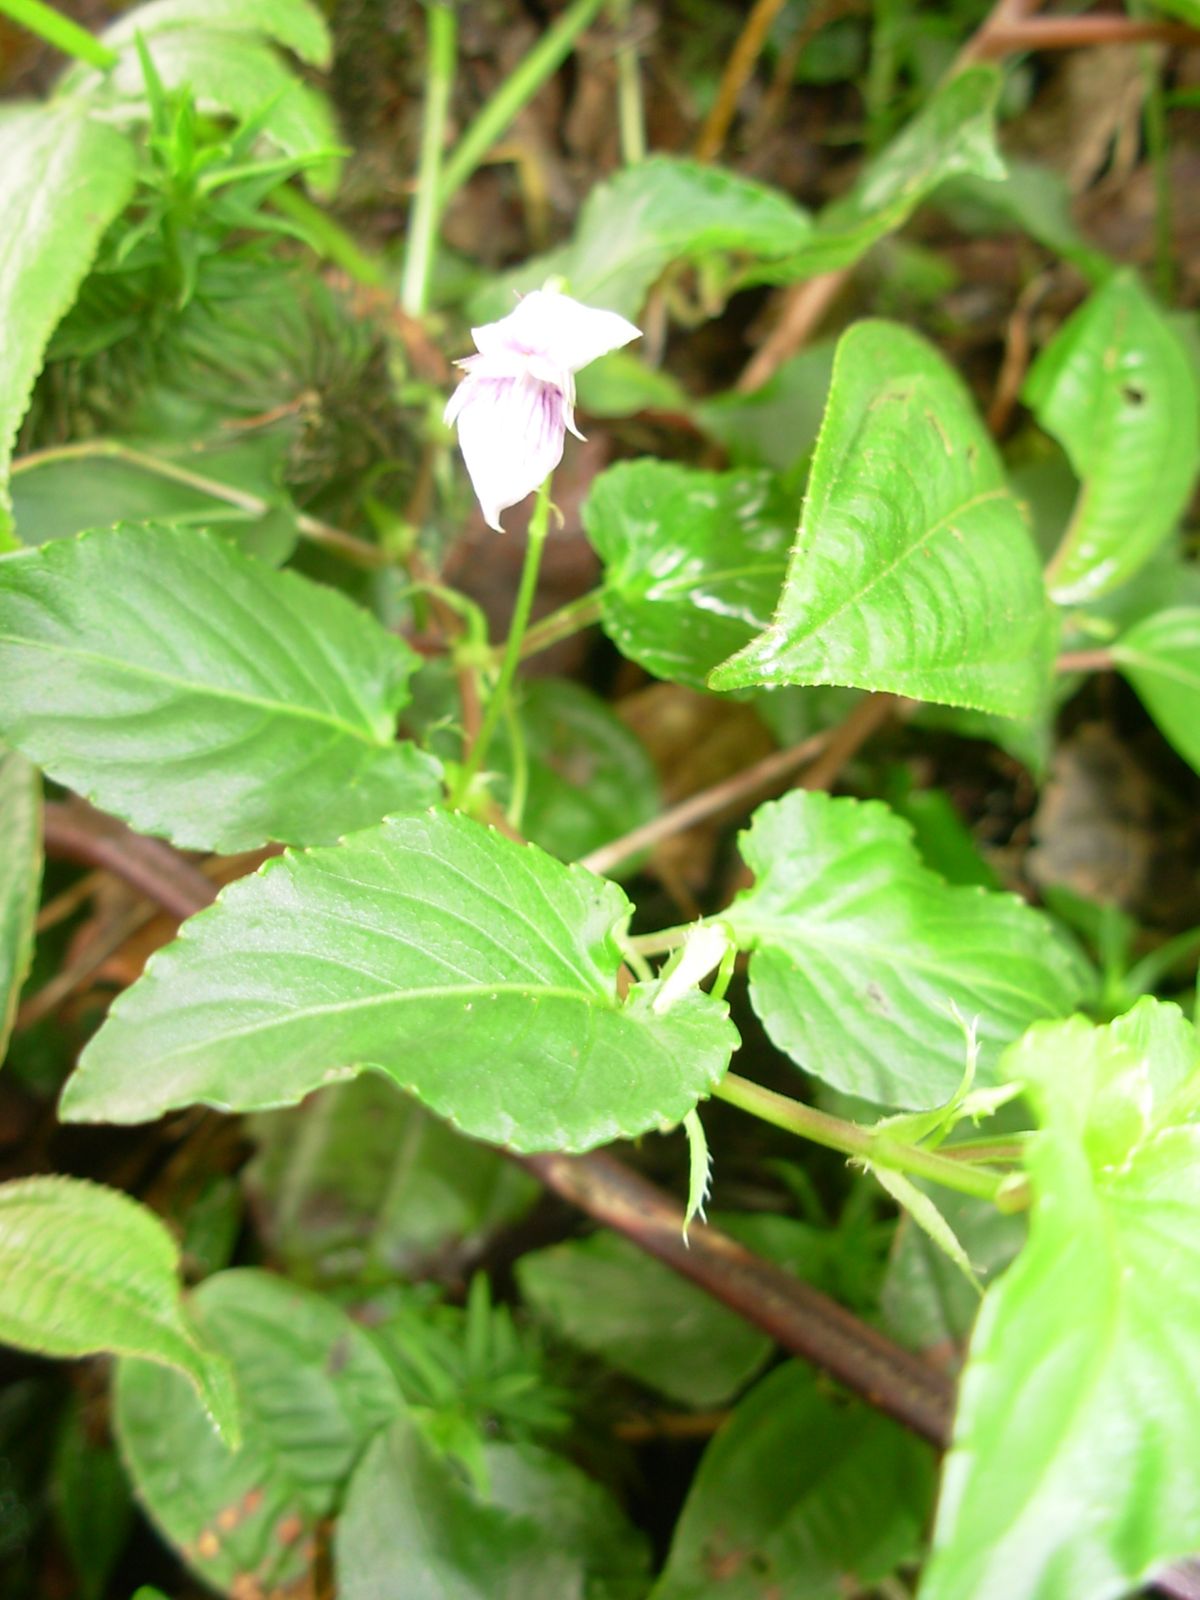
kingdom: Plantae
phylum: Tracheophyta
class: Magnoliopsida
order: Malpighiales
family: Violaceae
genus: Viola
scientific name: Viola scandens
